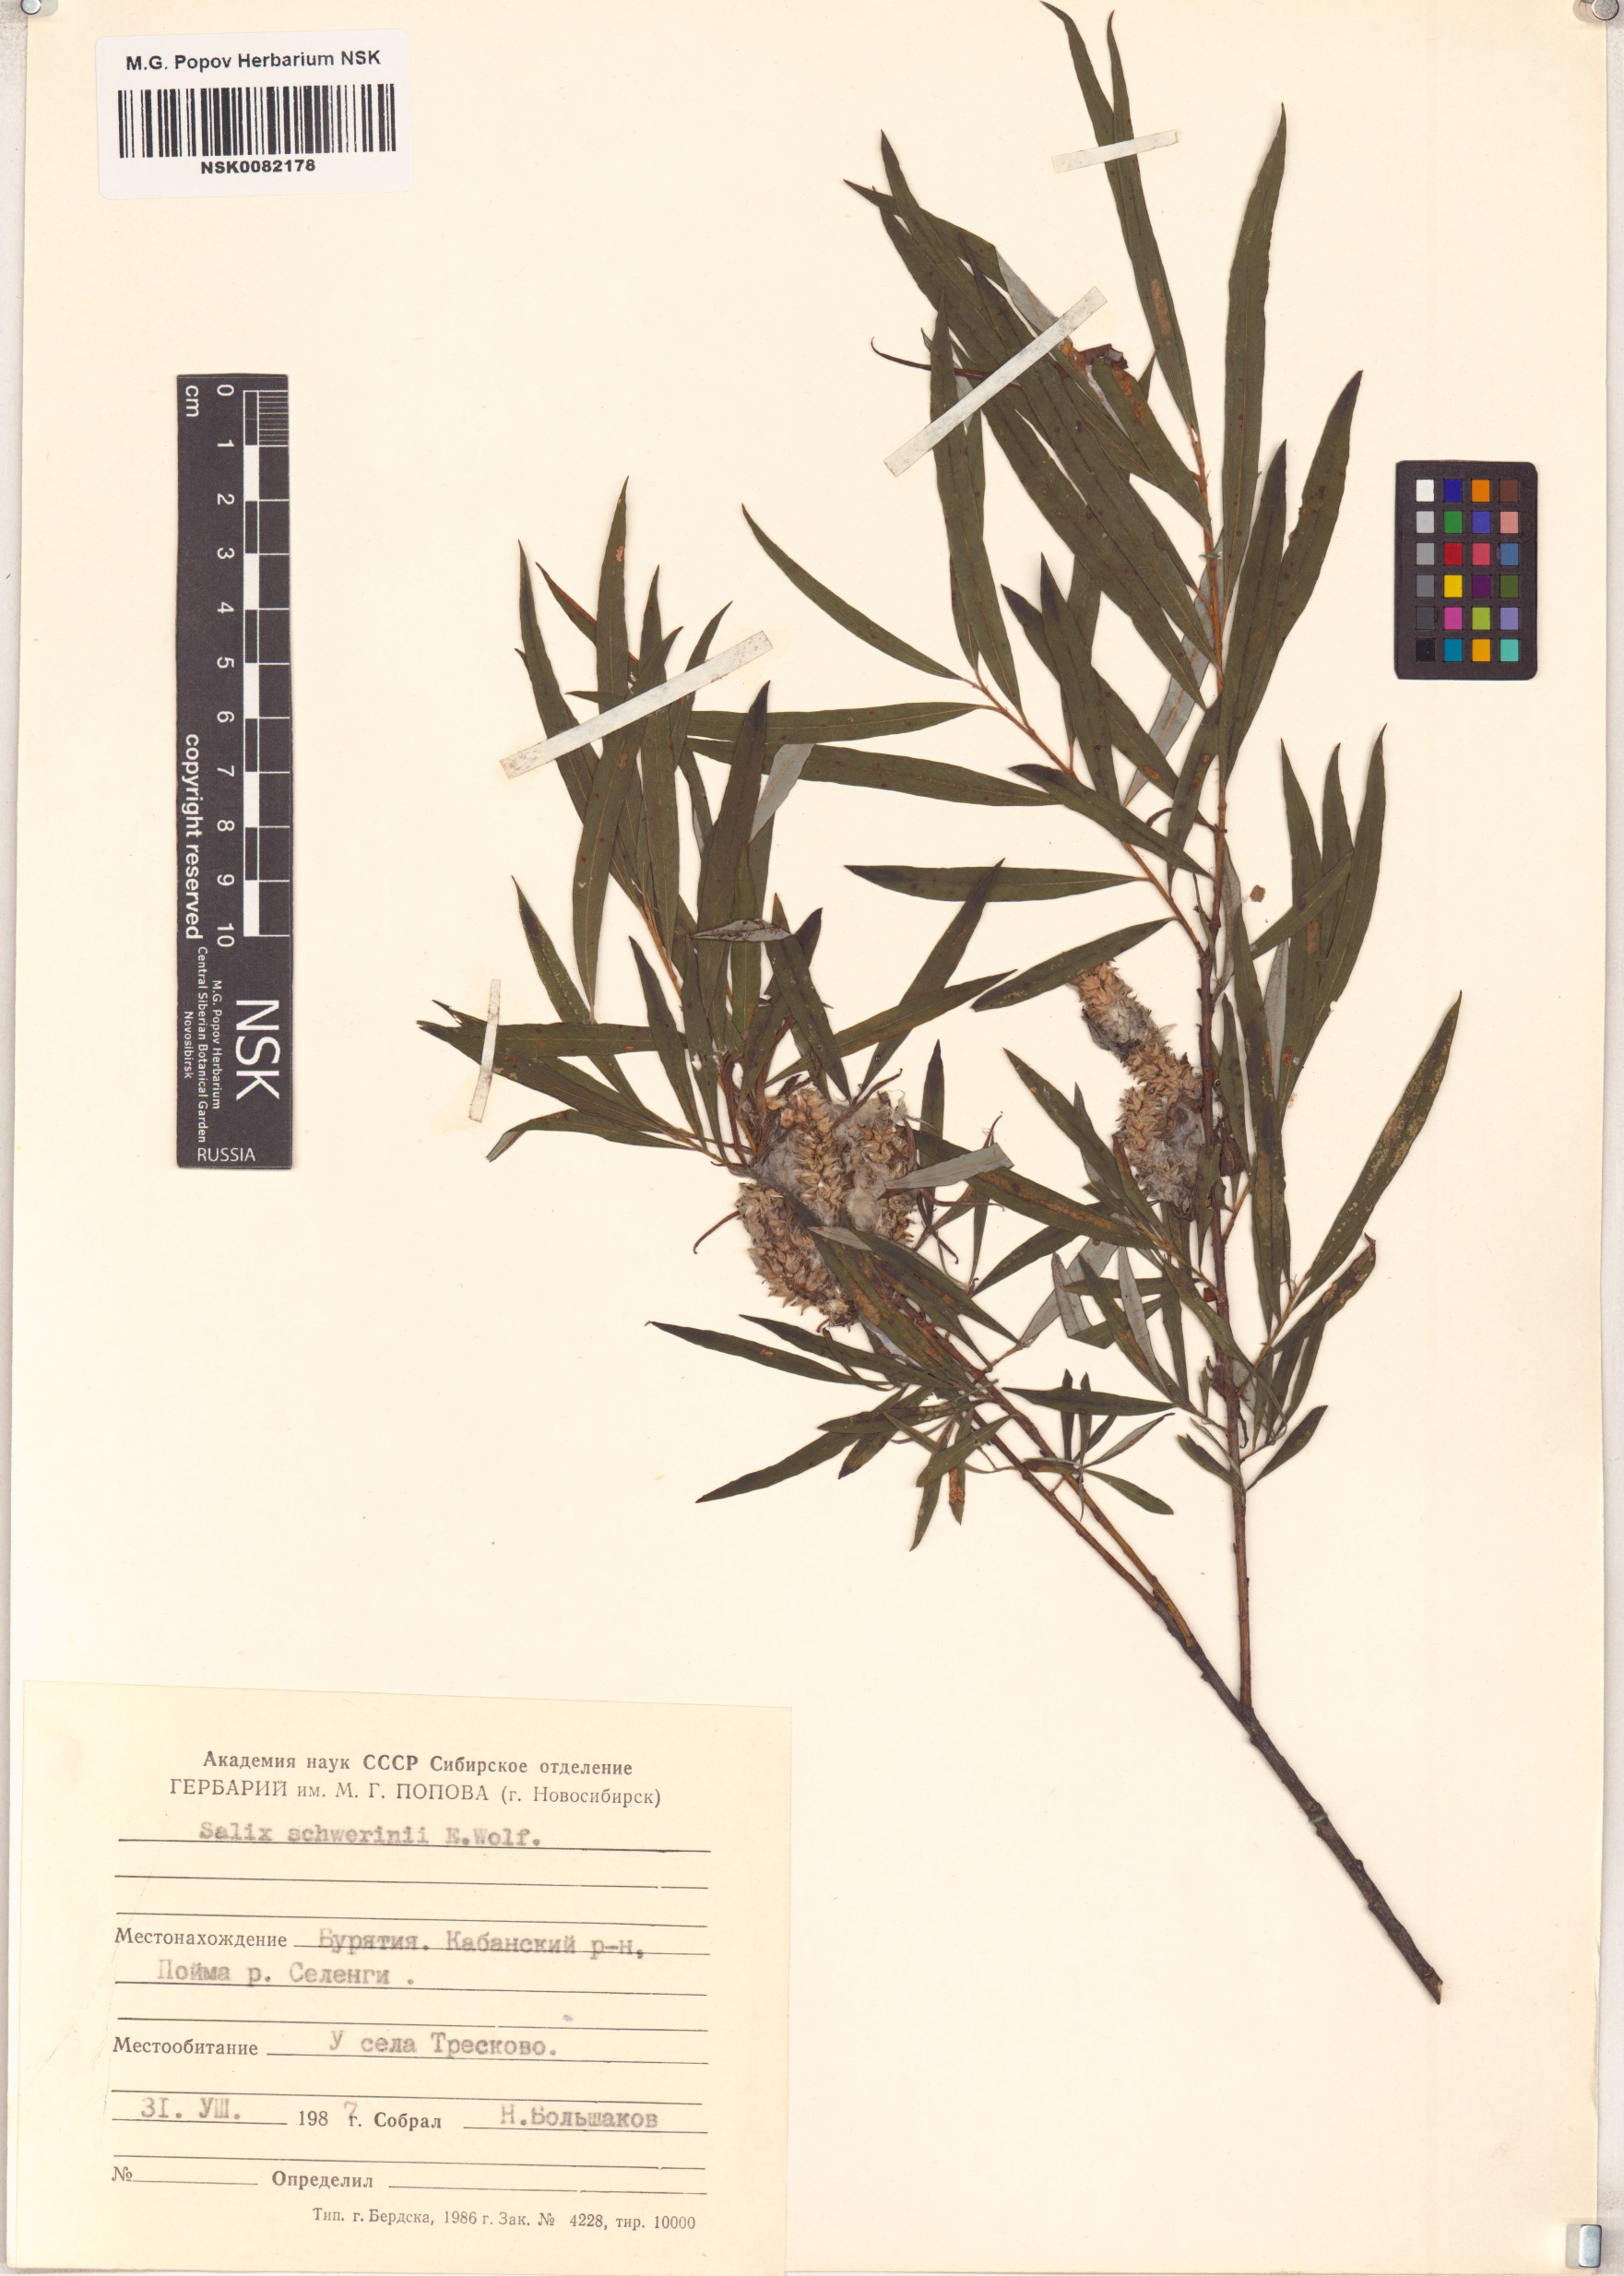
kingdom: Plantae
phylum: Tracheophyta
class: Magnoliopsida
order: Malpighiales
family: Salicaceae
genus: Salix
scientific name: Salix schwerinii
